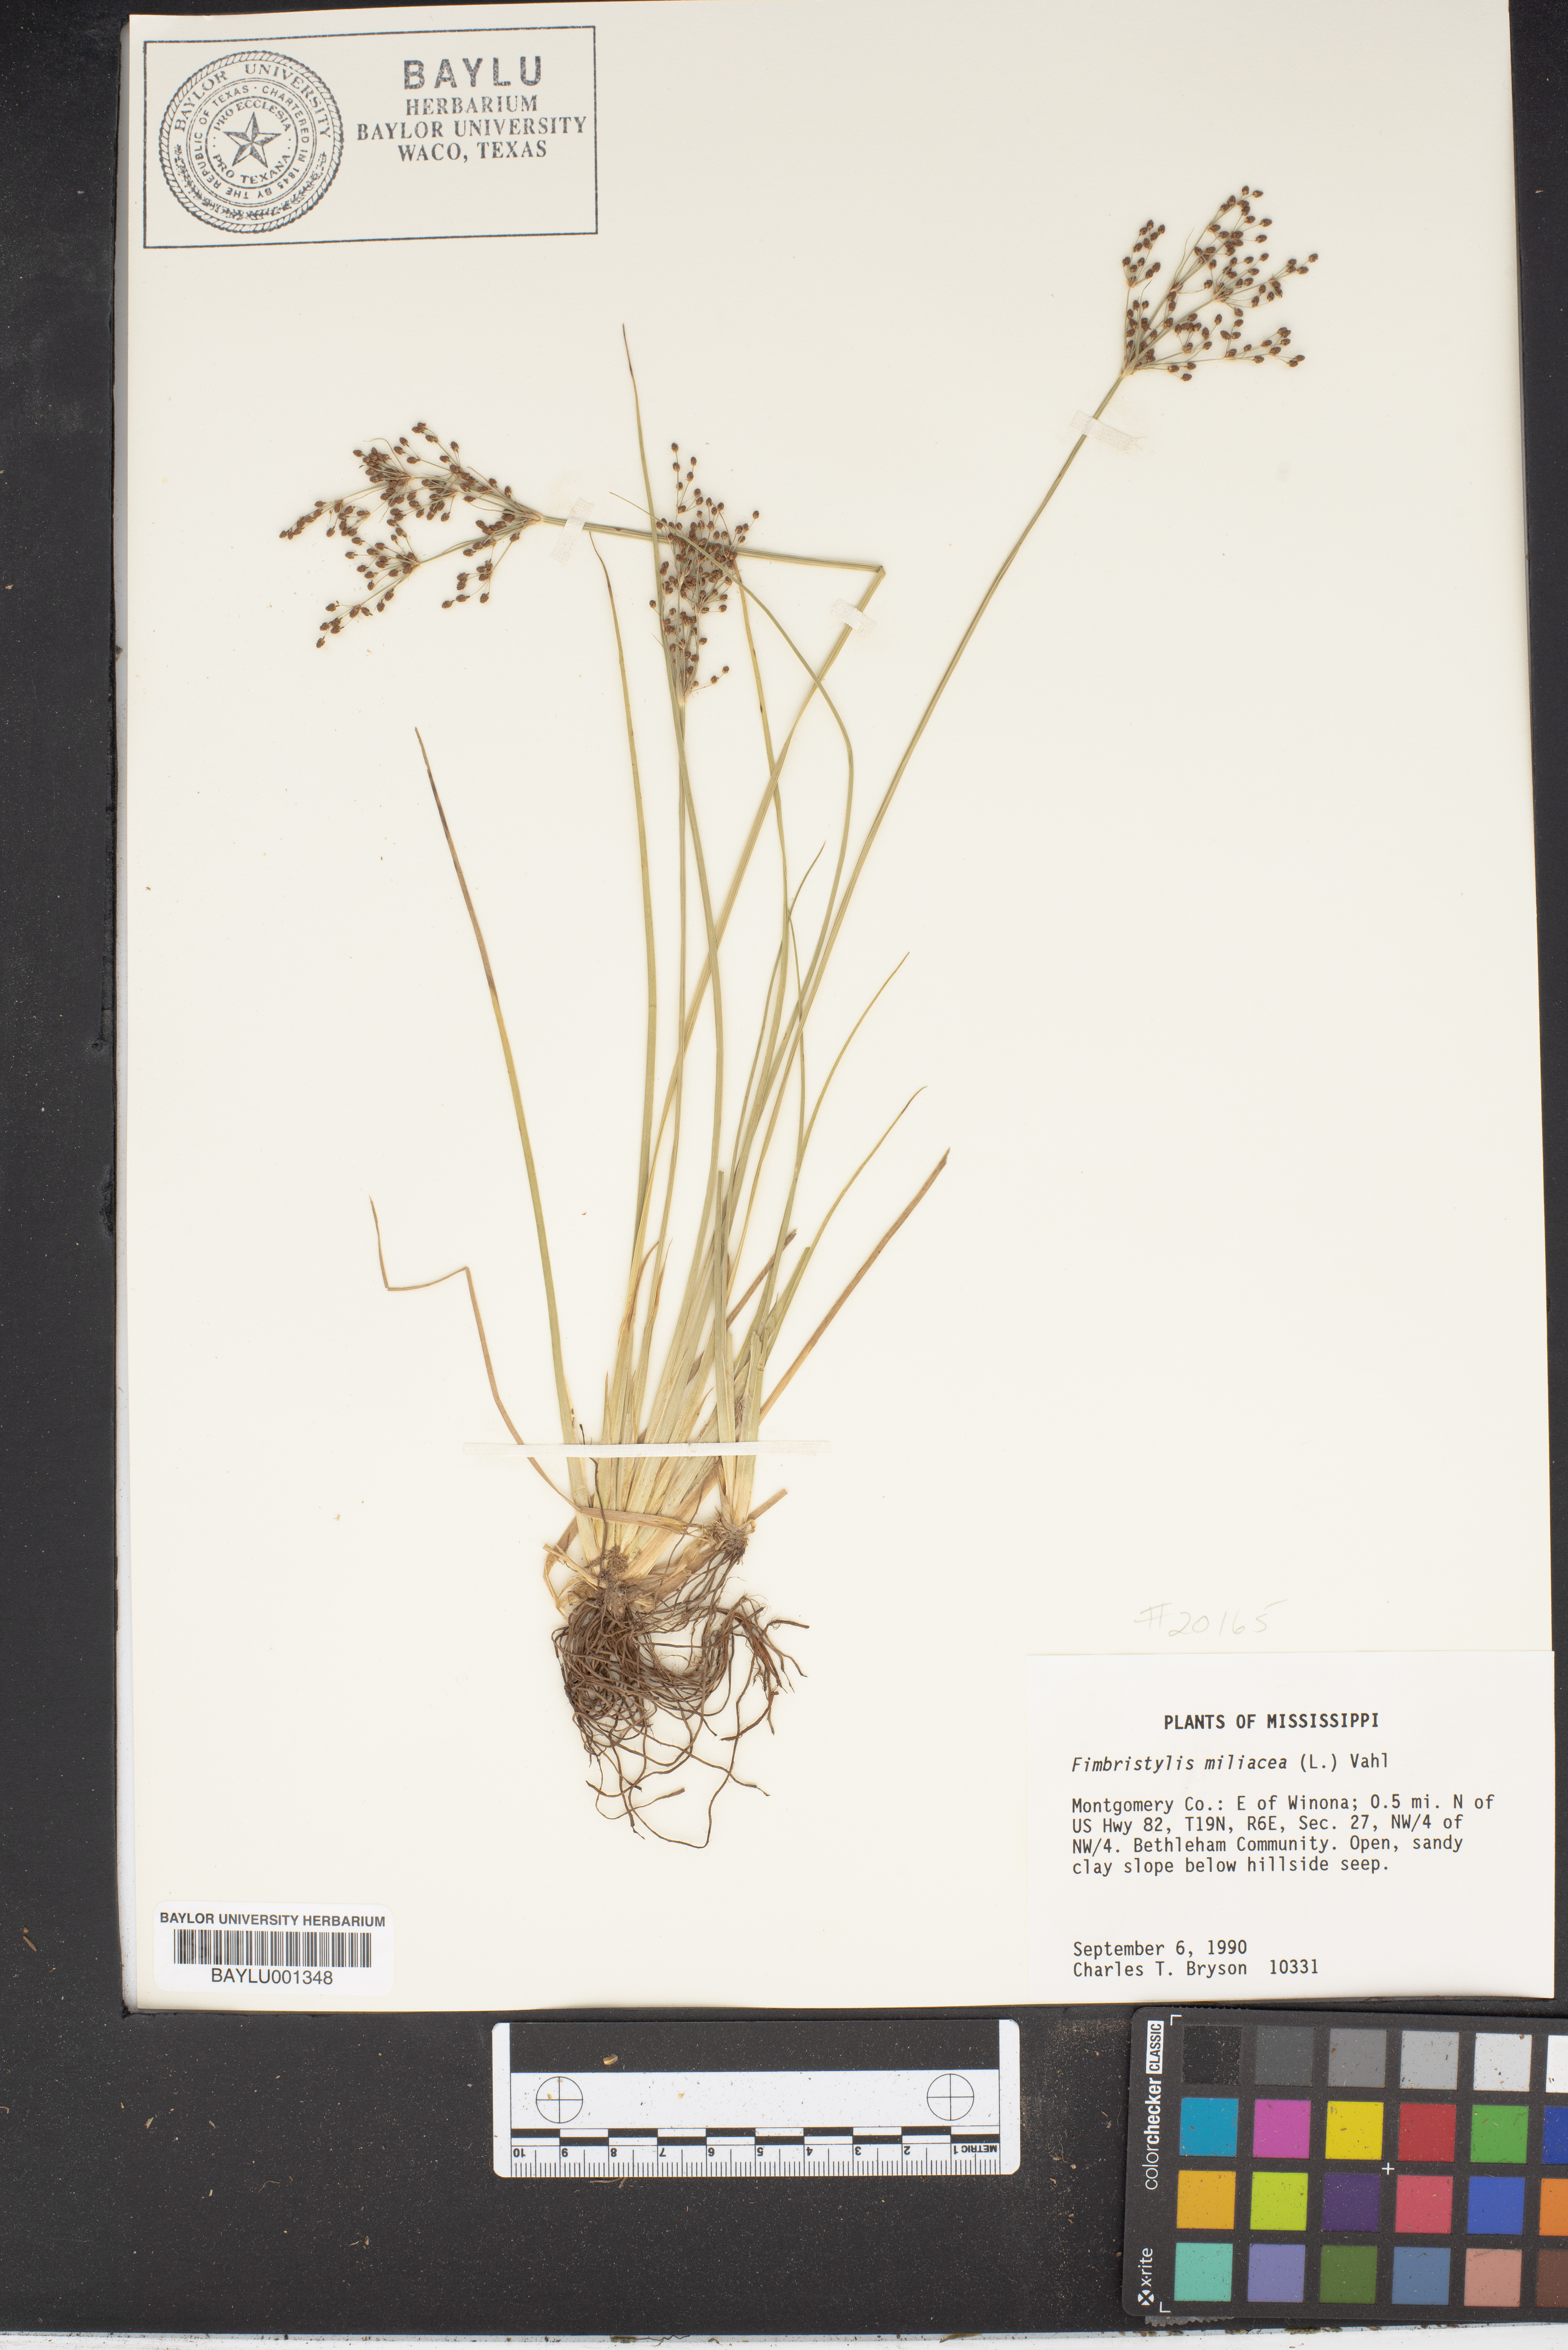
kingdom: Plantae
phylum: Tracheophyta
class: Liliopsida
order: Poales
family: Cyperaceae
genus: Fimbristylis
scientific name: Fimbristylis quinquangularis
